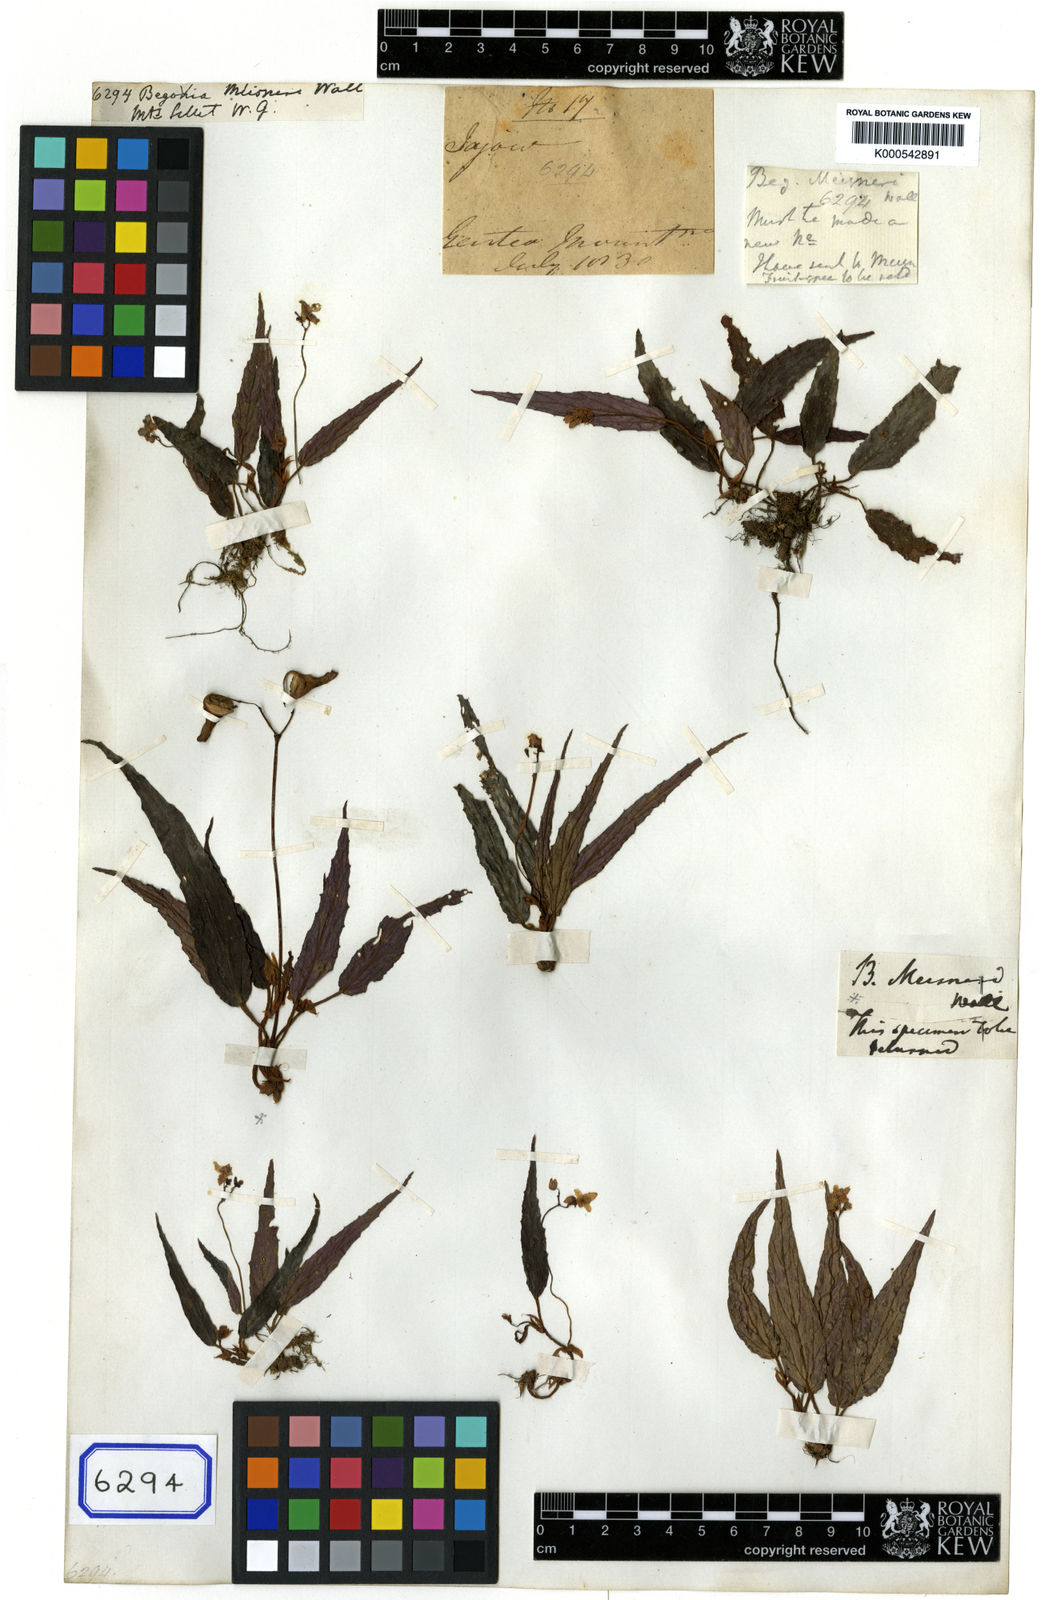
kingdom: Plantae
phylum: Tracheophyta
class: Magnoliopsida
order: Cucurbitales
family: Begoniaceae
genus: Begonia
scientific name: Begonia
